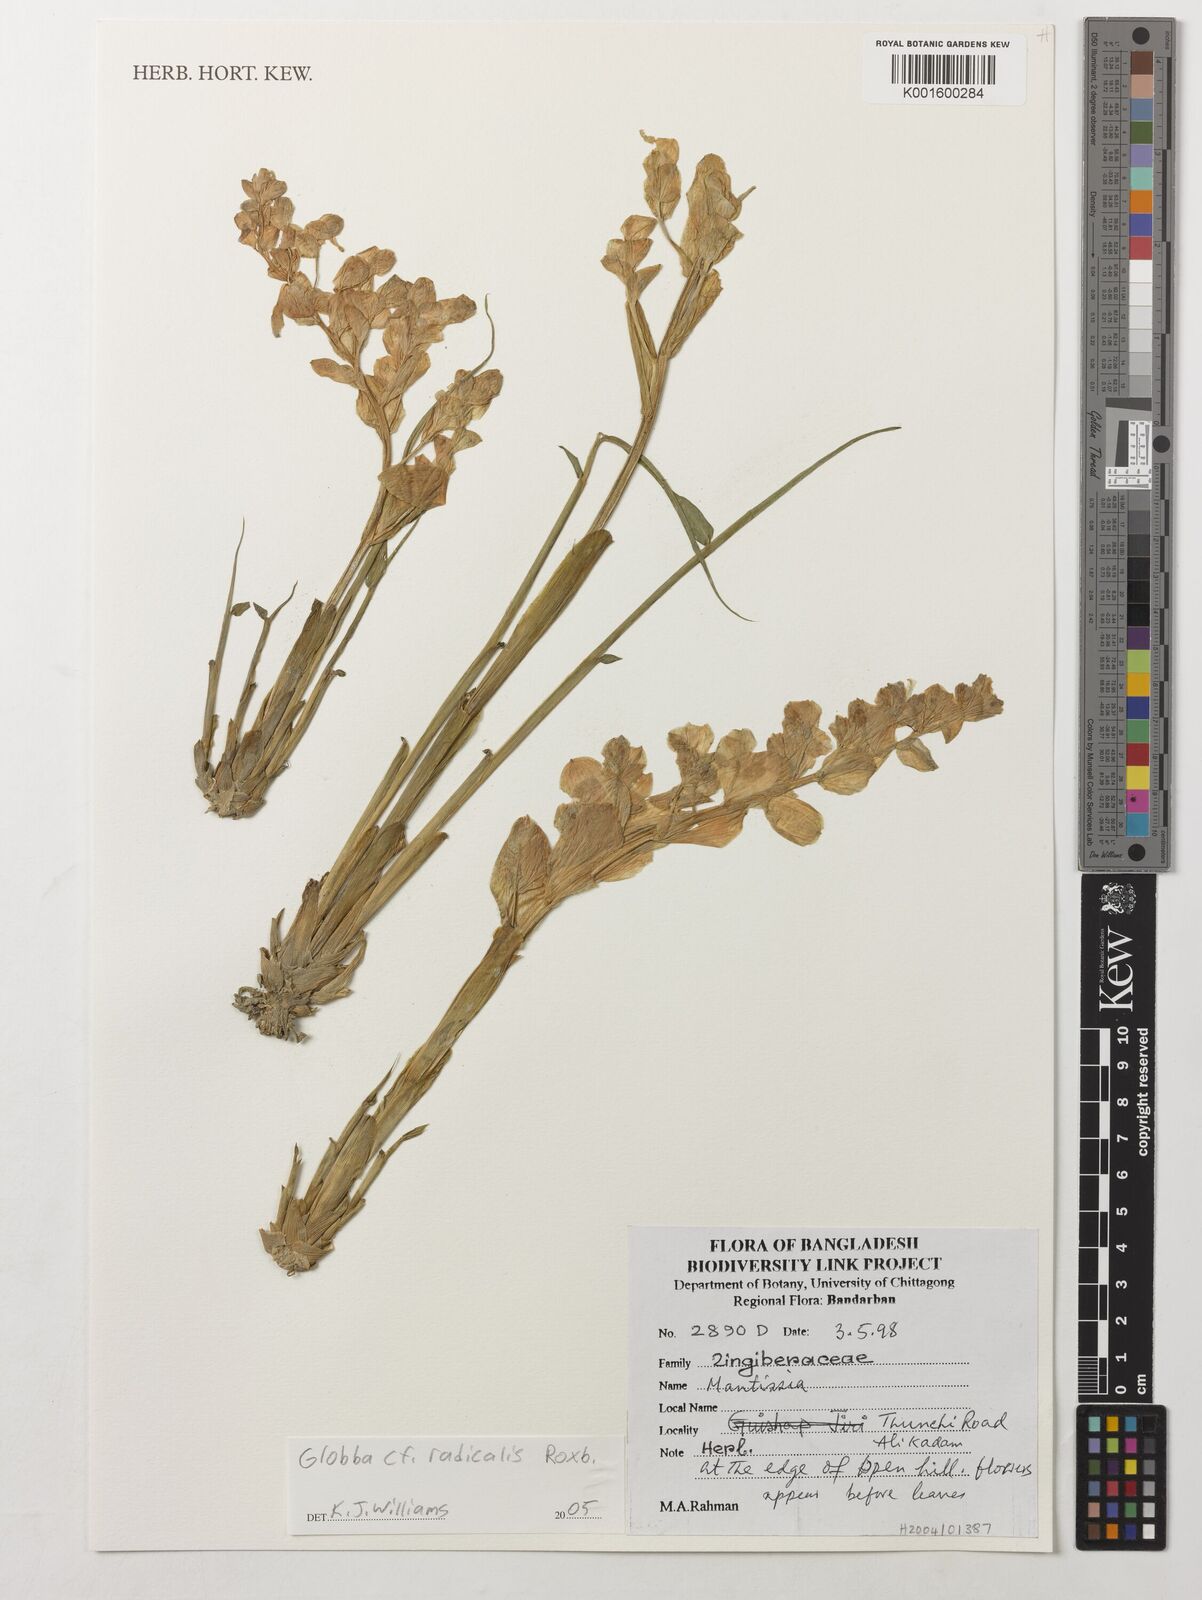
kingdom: Plantae
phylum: Tracheophyta
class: Liliopsida
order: Zingiberales
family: Zingiberaceae
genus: Globba
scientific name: Globba radicalis
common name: Dancing girl
